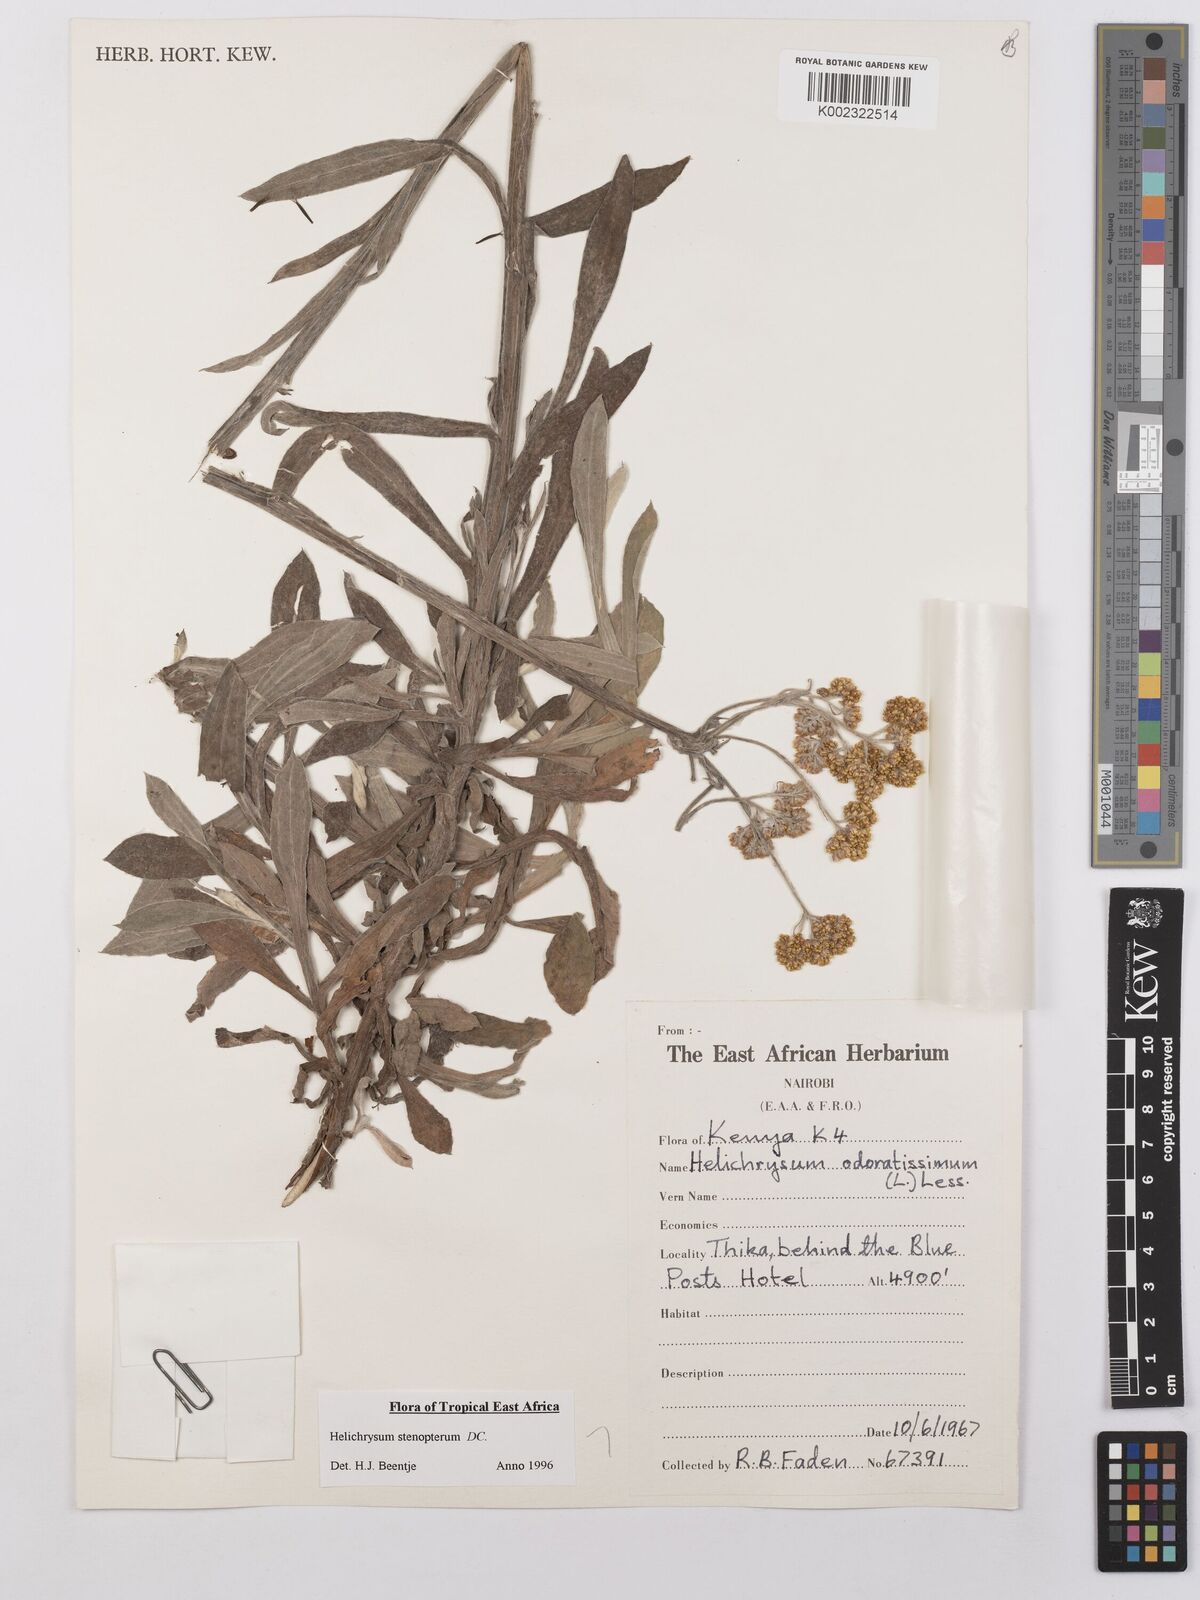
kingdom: Plantae
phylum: Tracheophyta
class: Magnoliopsida
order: Asterales
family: Asteraceae
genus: Helichrysum
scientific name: Helichrysum stenopterum
